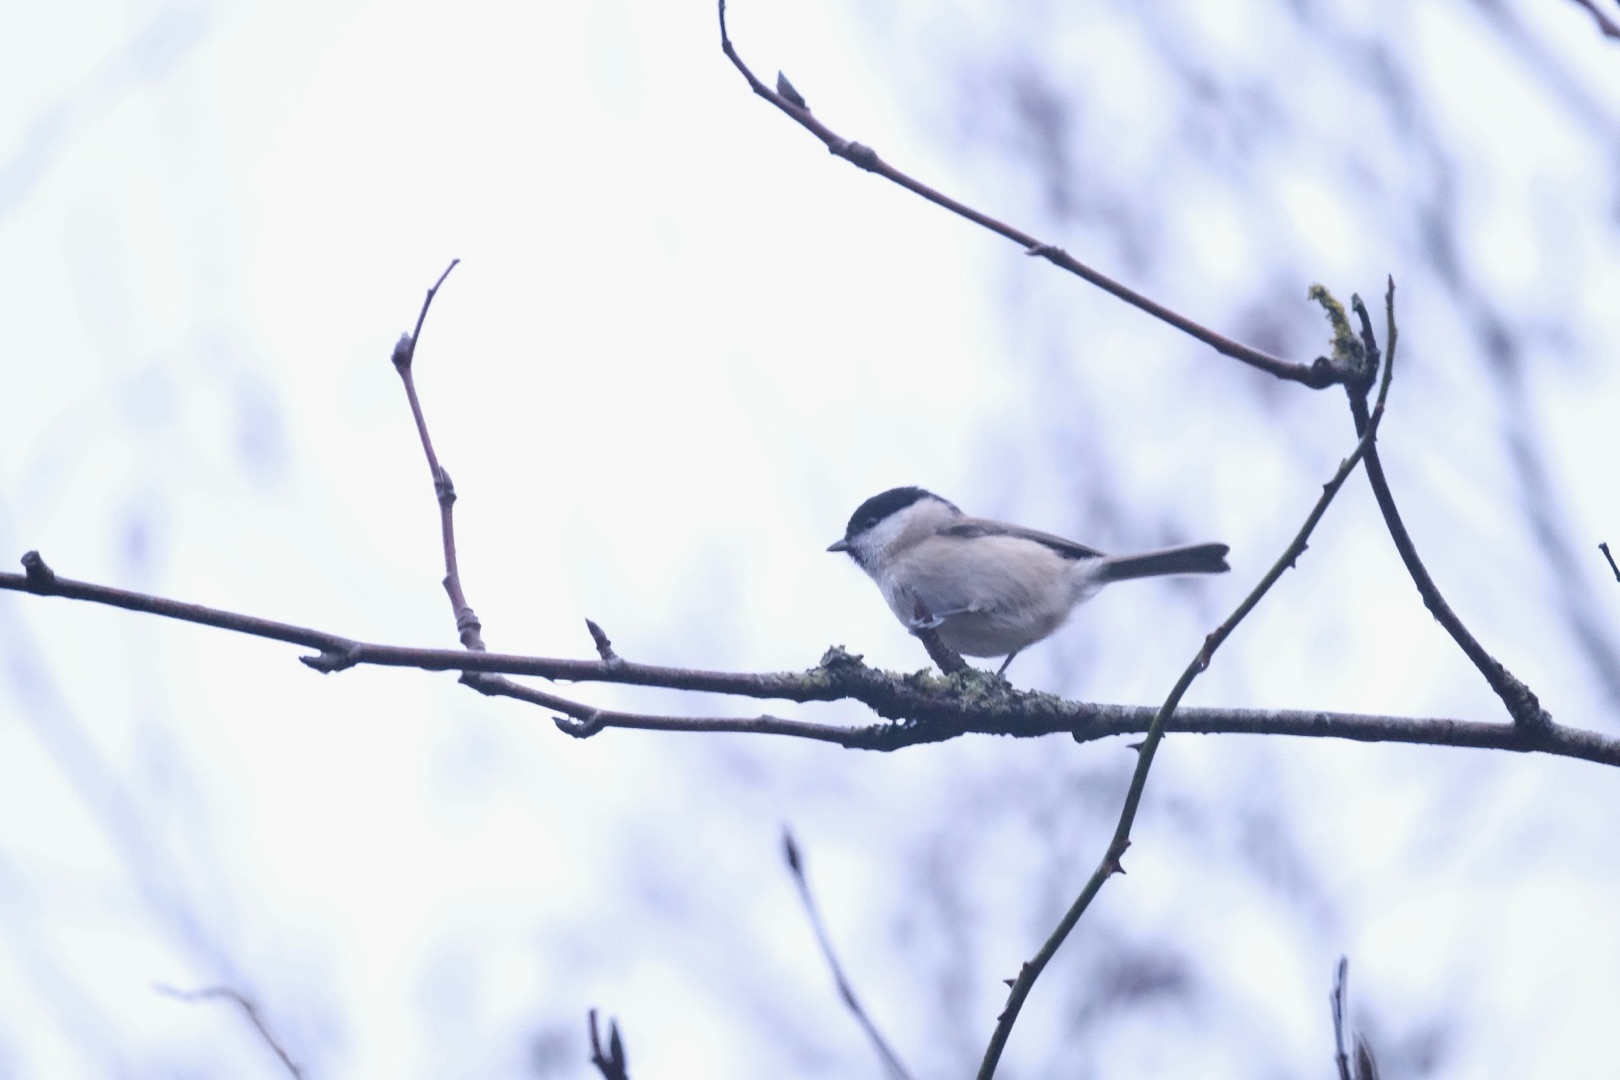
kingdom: Animalia
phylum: Chordata
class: Aves
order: Passeriformes
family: Paridae
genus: Poecile
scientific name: Poecile palustris
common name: Sumpmejse
